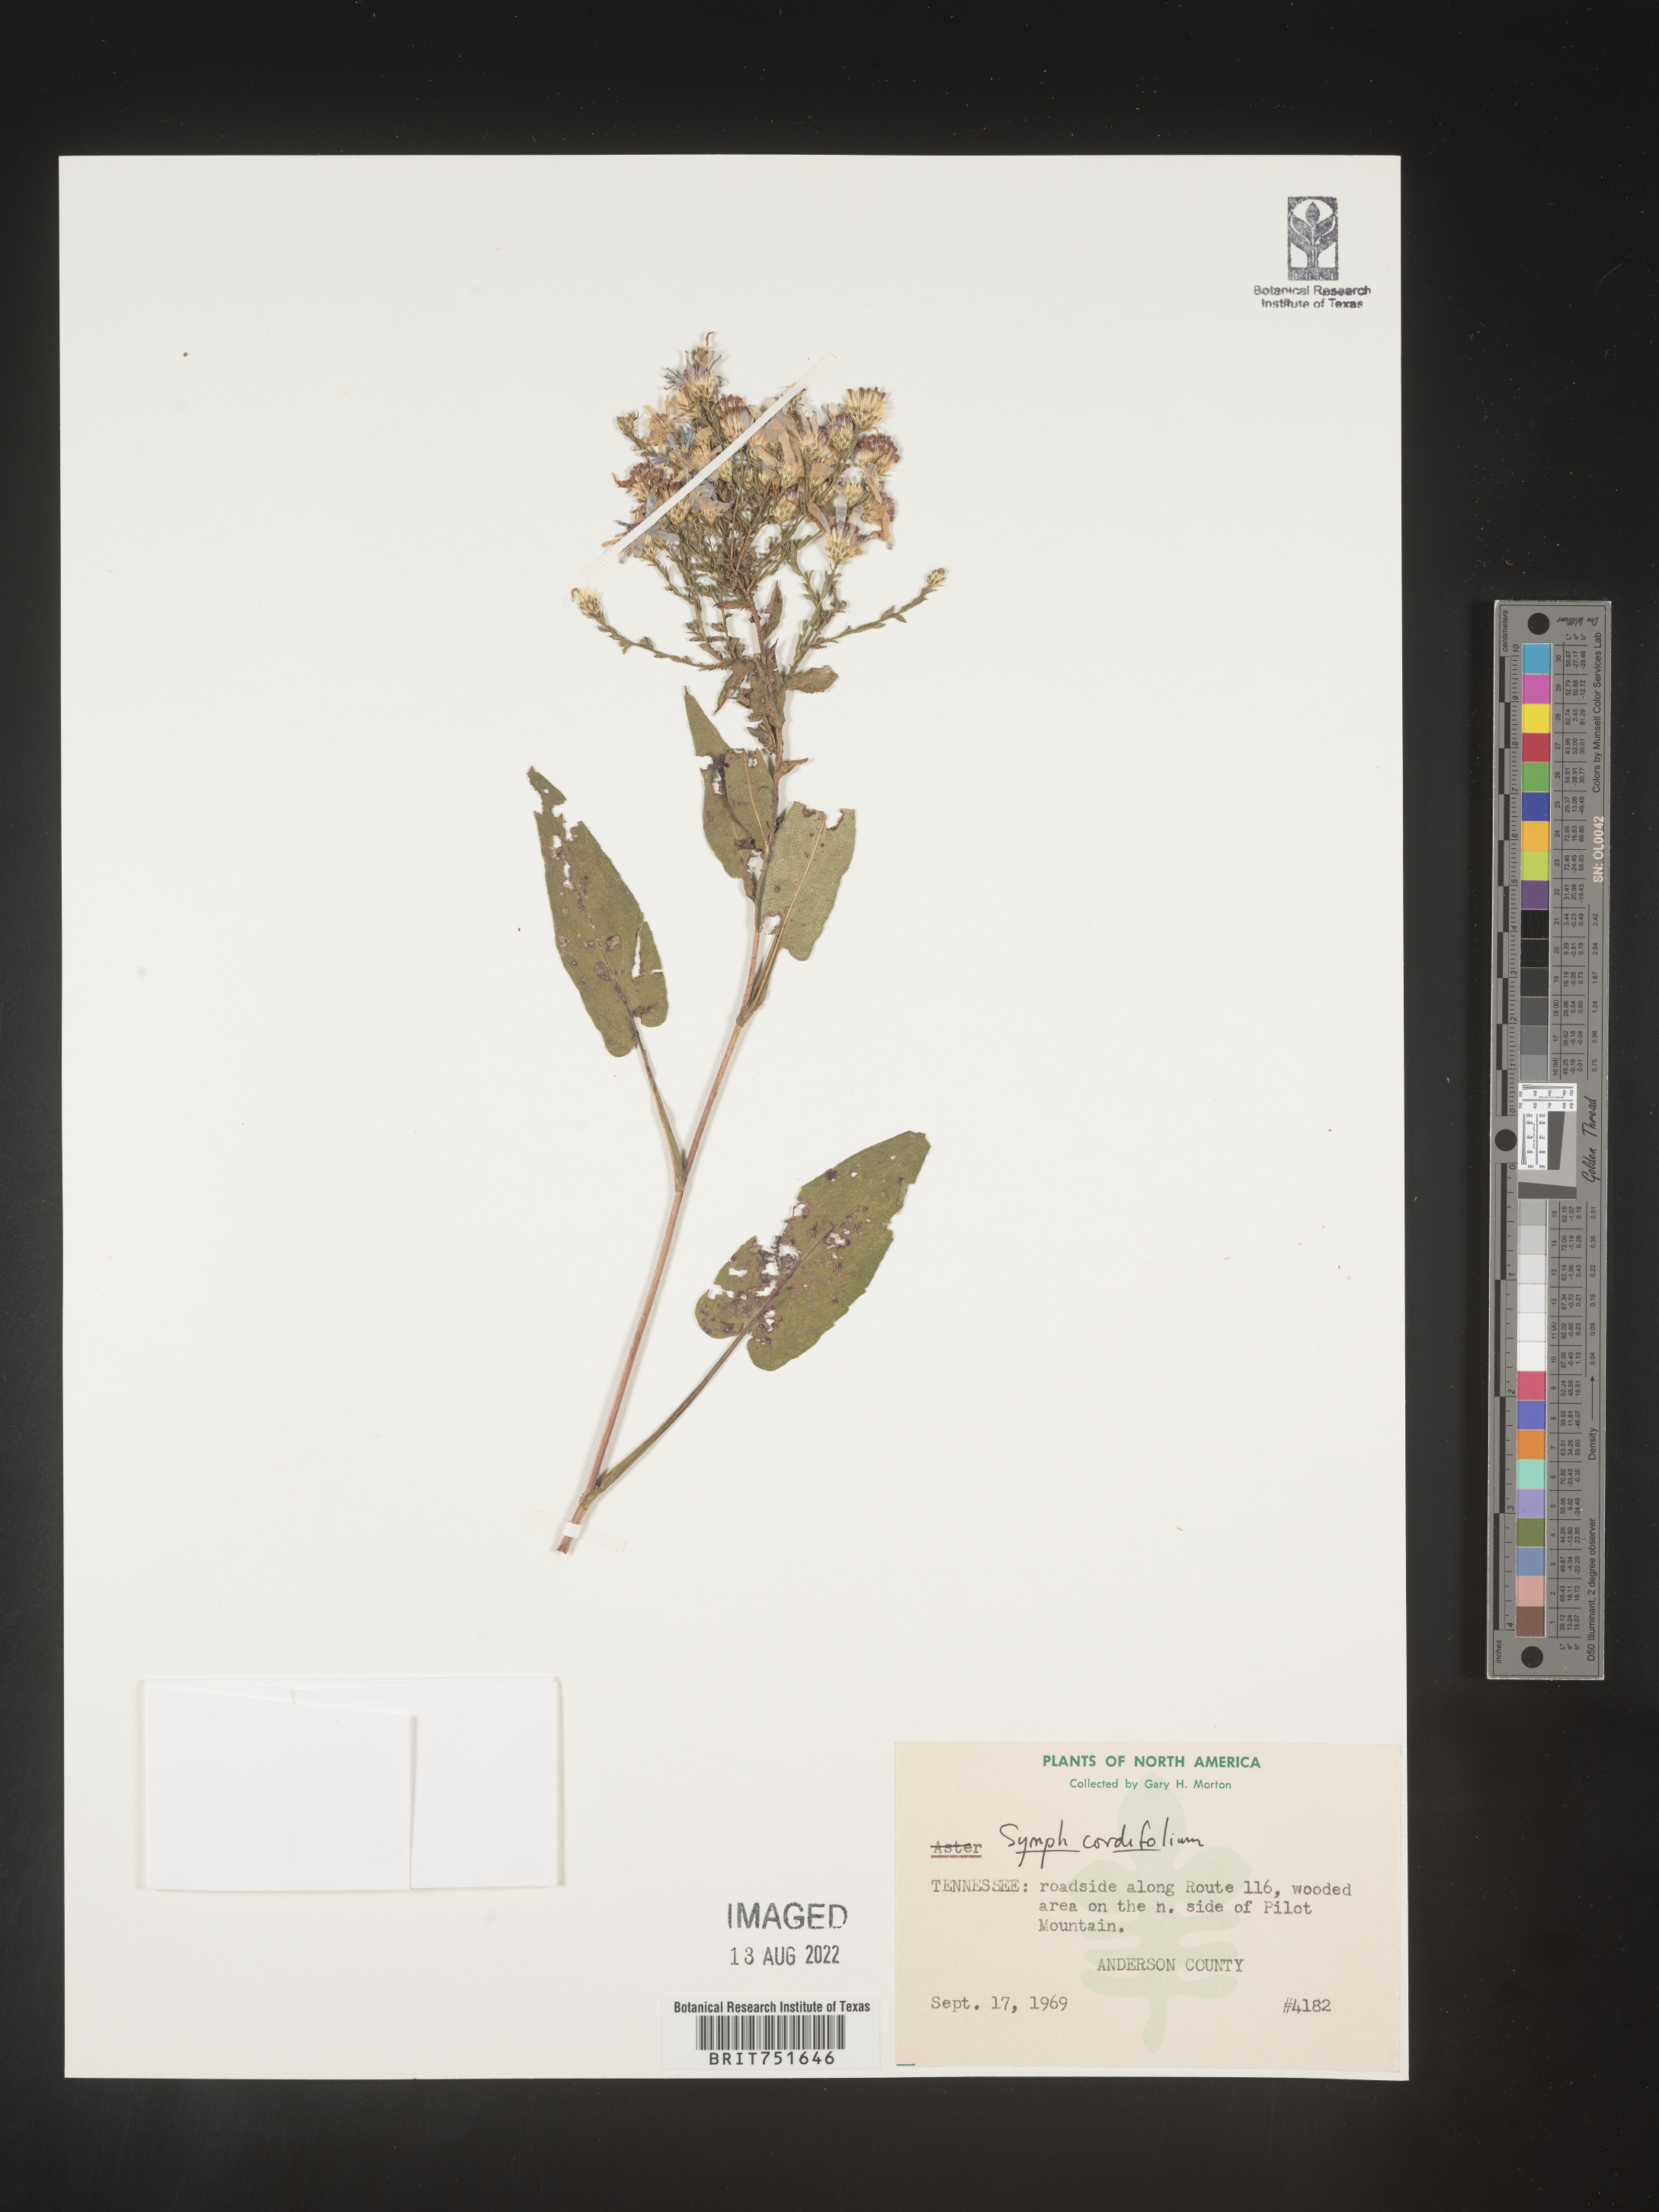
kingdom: Plantae
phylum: Tracheophyta
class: Magnoliopsida
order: Asterales
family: Asteraceae
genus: Symphyotrichum
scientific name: Symphyotrichum cordifolium
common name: Beeweed
